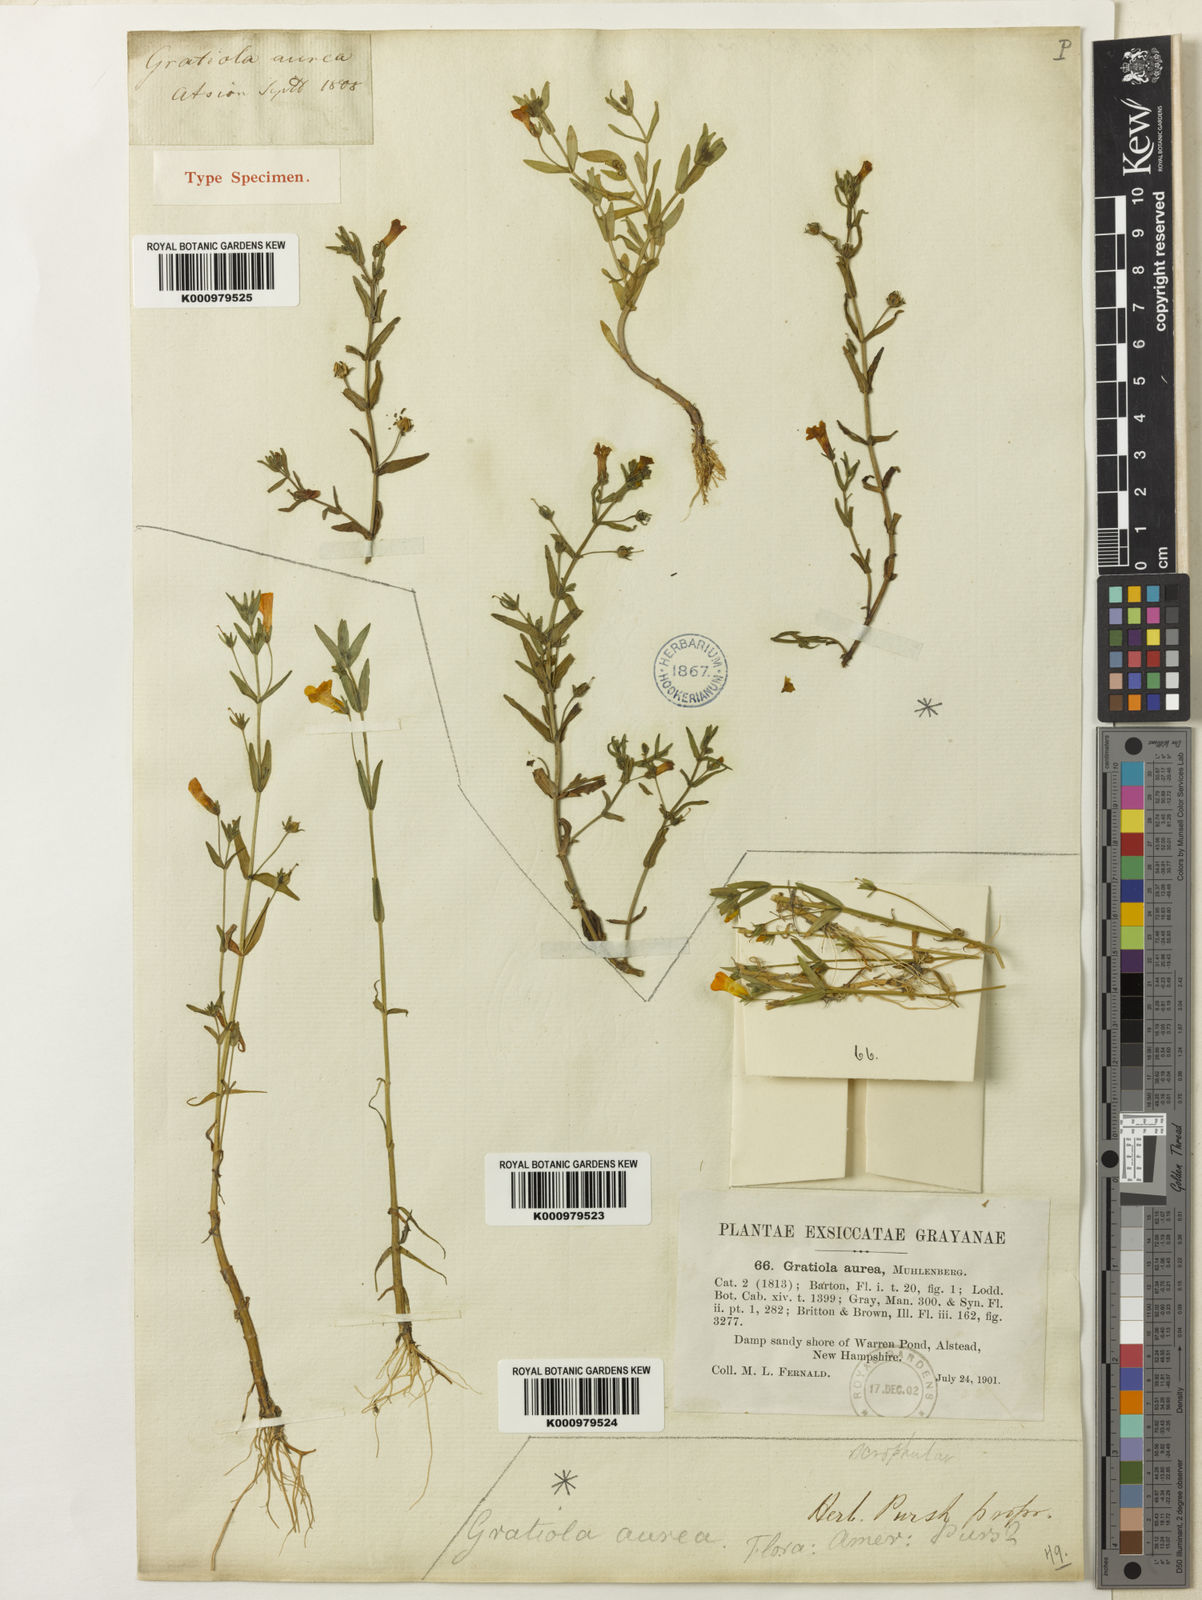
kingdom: Plantae
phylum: Tracheophyta
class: Magnoliopsida
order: Lamiales
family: Plantaginaceae
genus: Gratiola
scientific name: Gratiola
